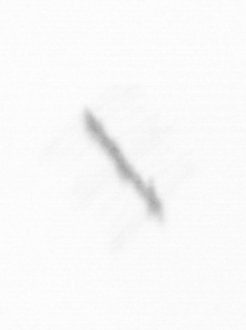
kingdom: Chromista
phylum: Ochrophyta
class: Bacillariophyceae
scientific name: Bacillariophyceae
